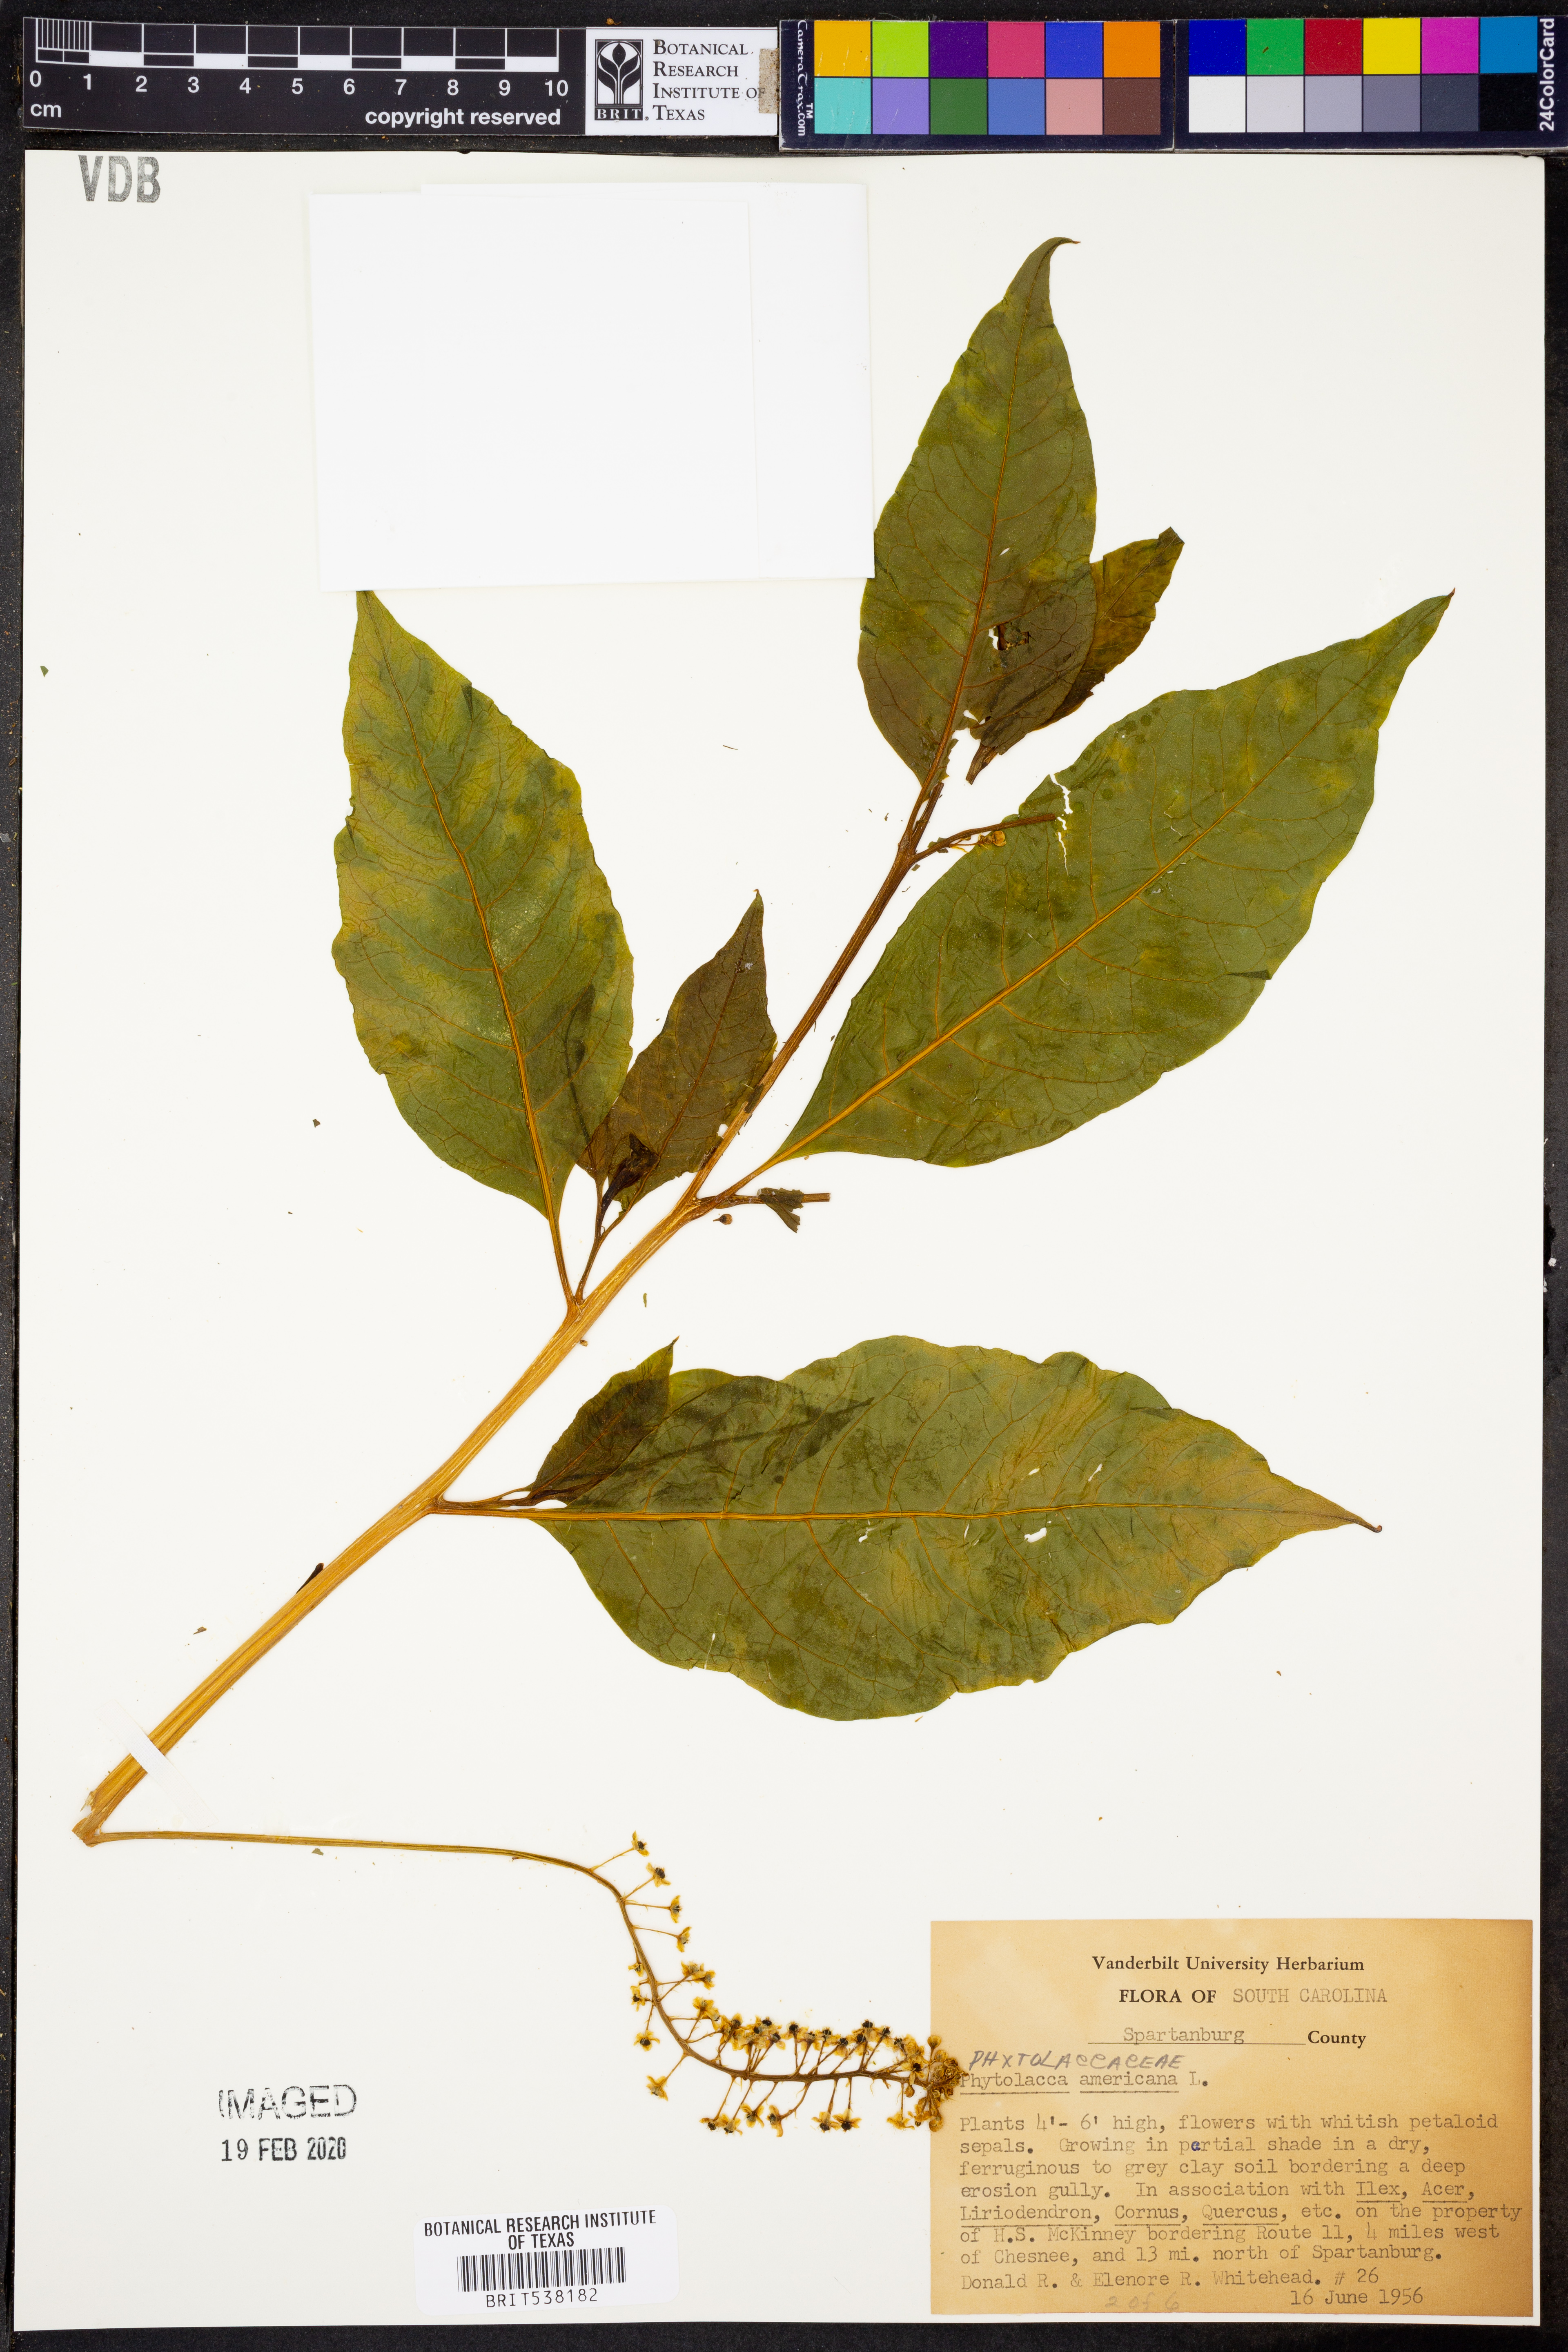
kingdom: Plantae
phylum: Tracheophyta
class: Magnoliopsida
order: Caryophyllales
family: Phytolaccaceae
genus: Phytolacca
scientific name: Phytolacca americana
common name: American pokeweed
